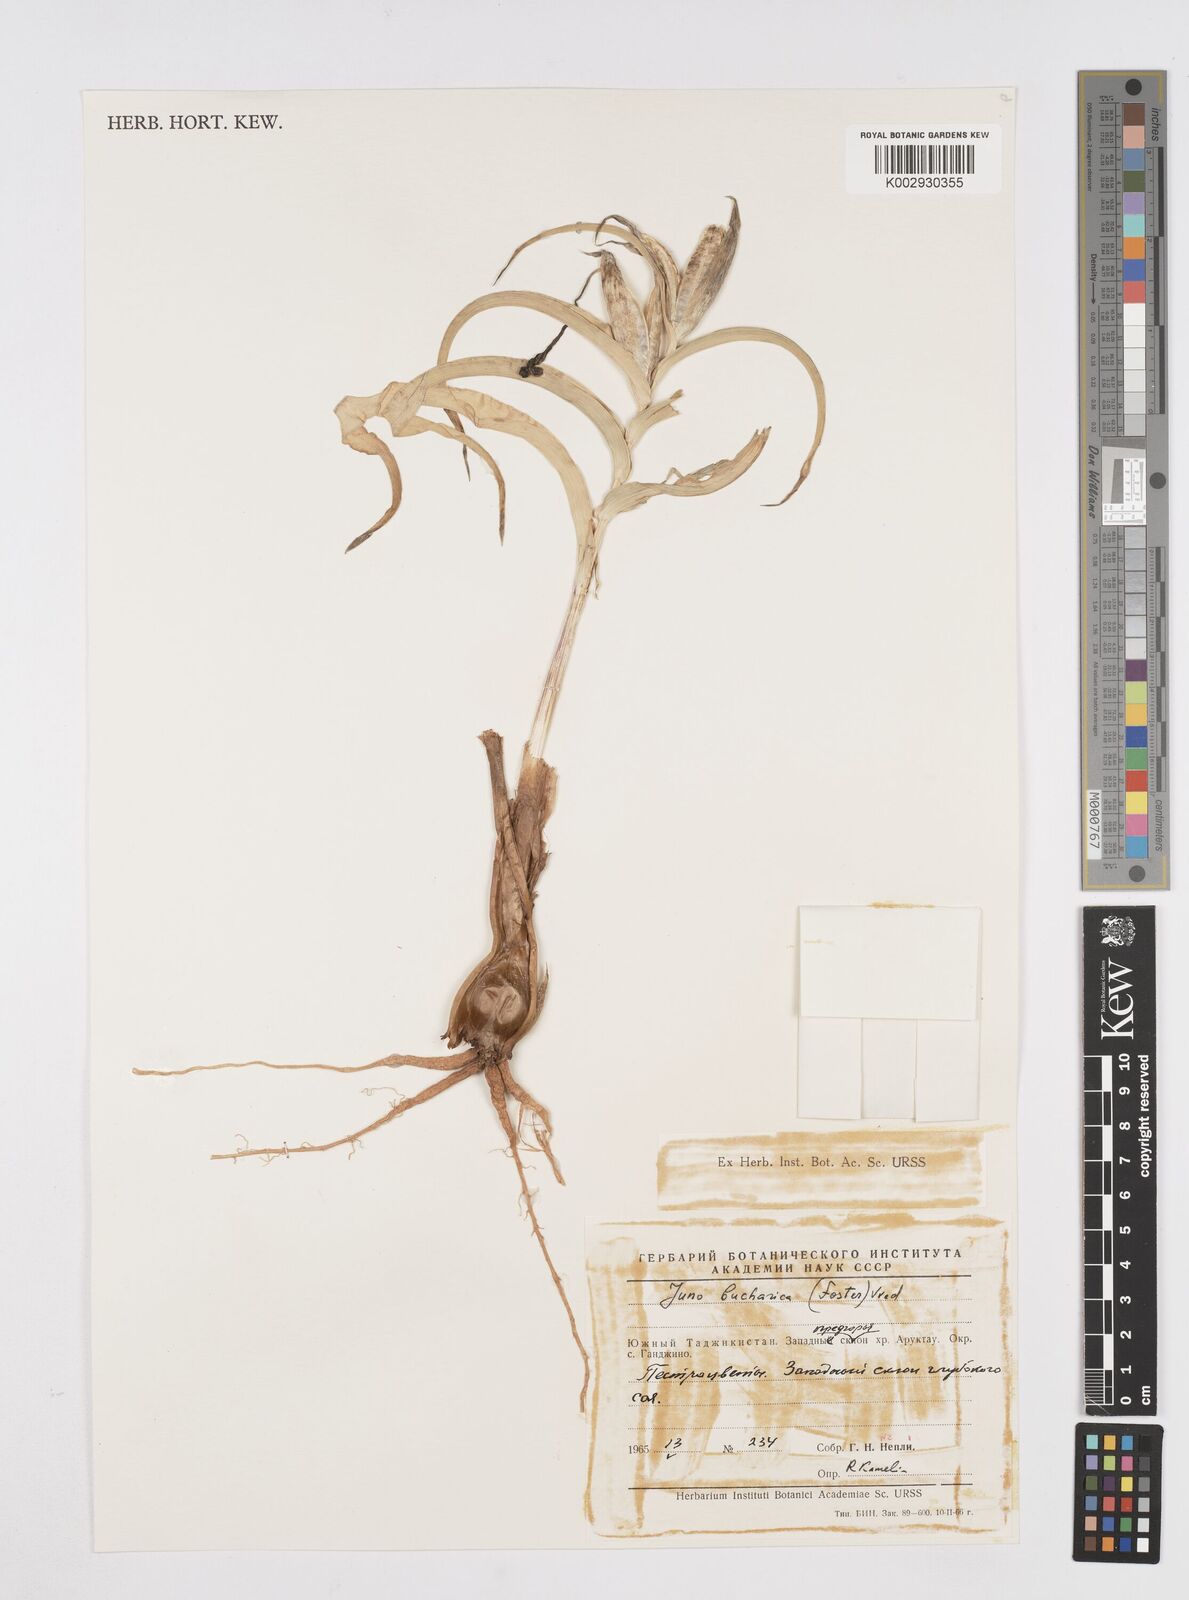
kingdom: Plantae
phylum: Tracheophyta
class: Liliopsida
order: Asparagales
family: Iridaceae
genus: Iris
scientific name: Iris bucharica
